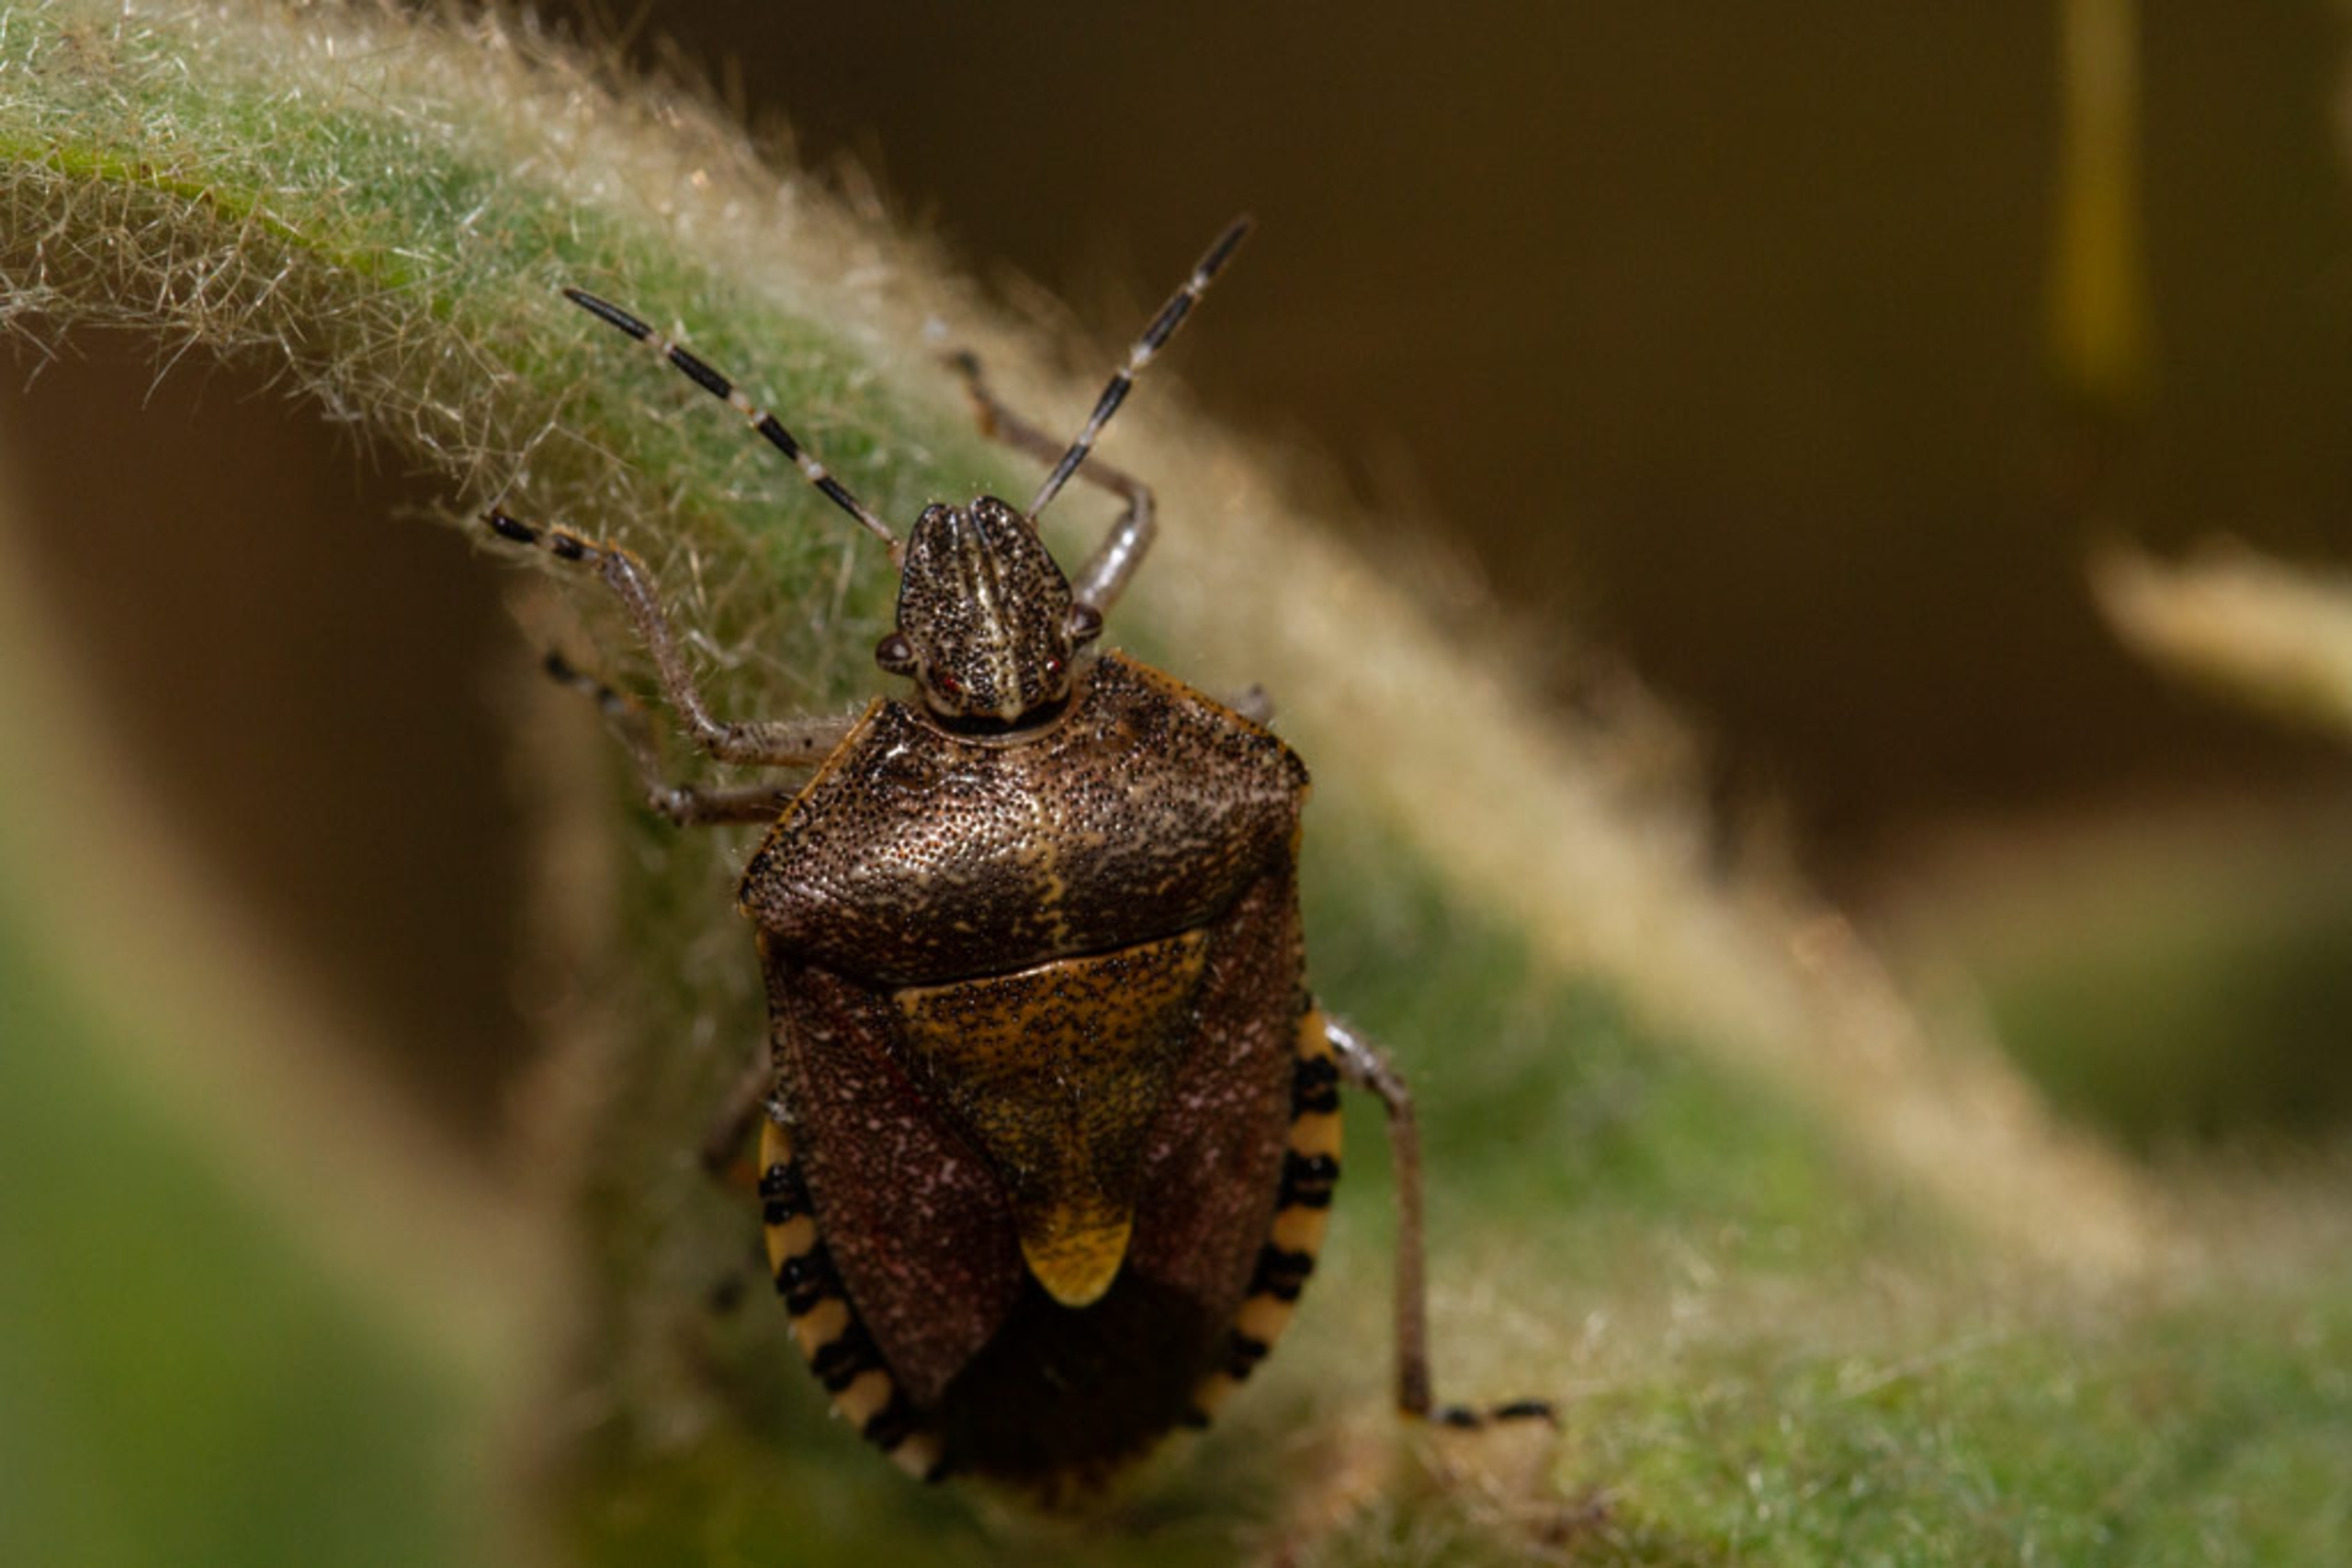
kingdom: Animalia
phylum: Arthropoda
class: Insecta
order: Hemiptera
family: Pentatomidae
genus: Dolycoris
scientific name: Dolycoris baccarum
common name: Almindelig bærtæge
